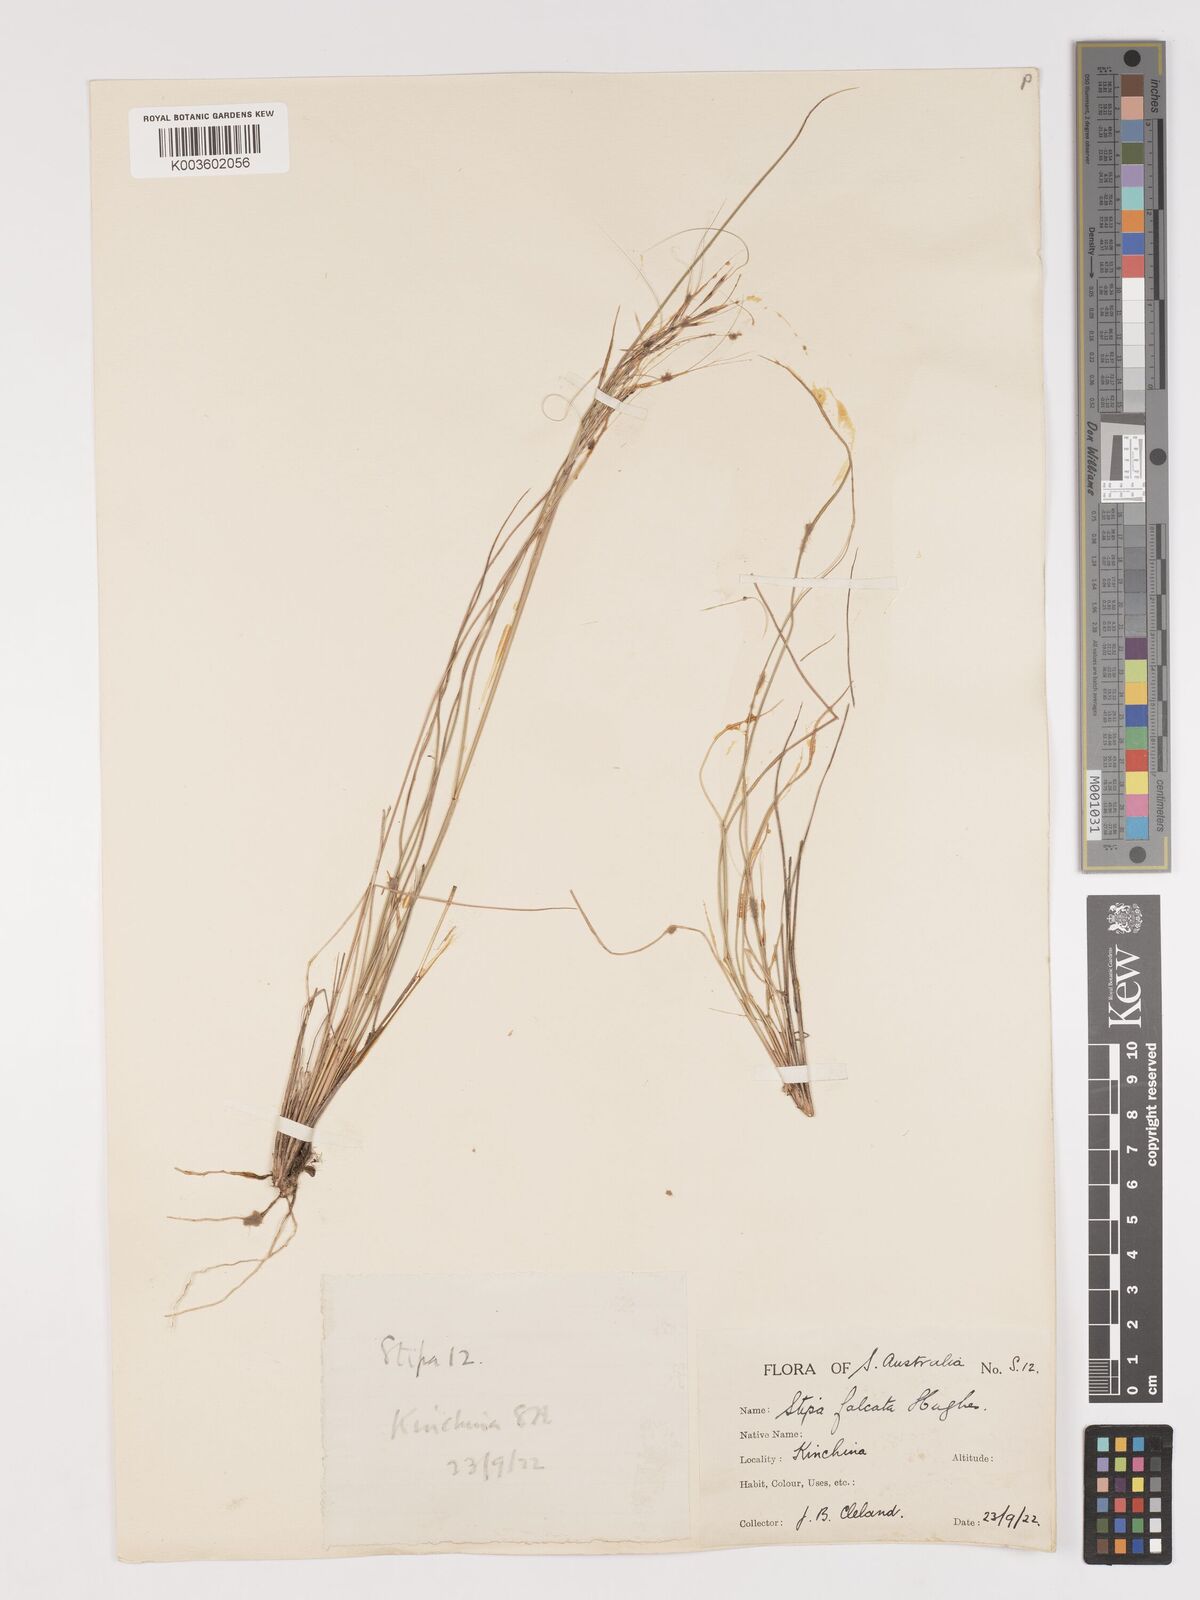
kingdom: Plantae
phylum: Tracheophyta
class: Liliopsida
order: Poales
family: Poaceae
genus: Austrostipa
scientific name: Austrostipa scabra
